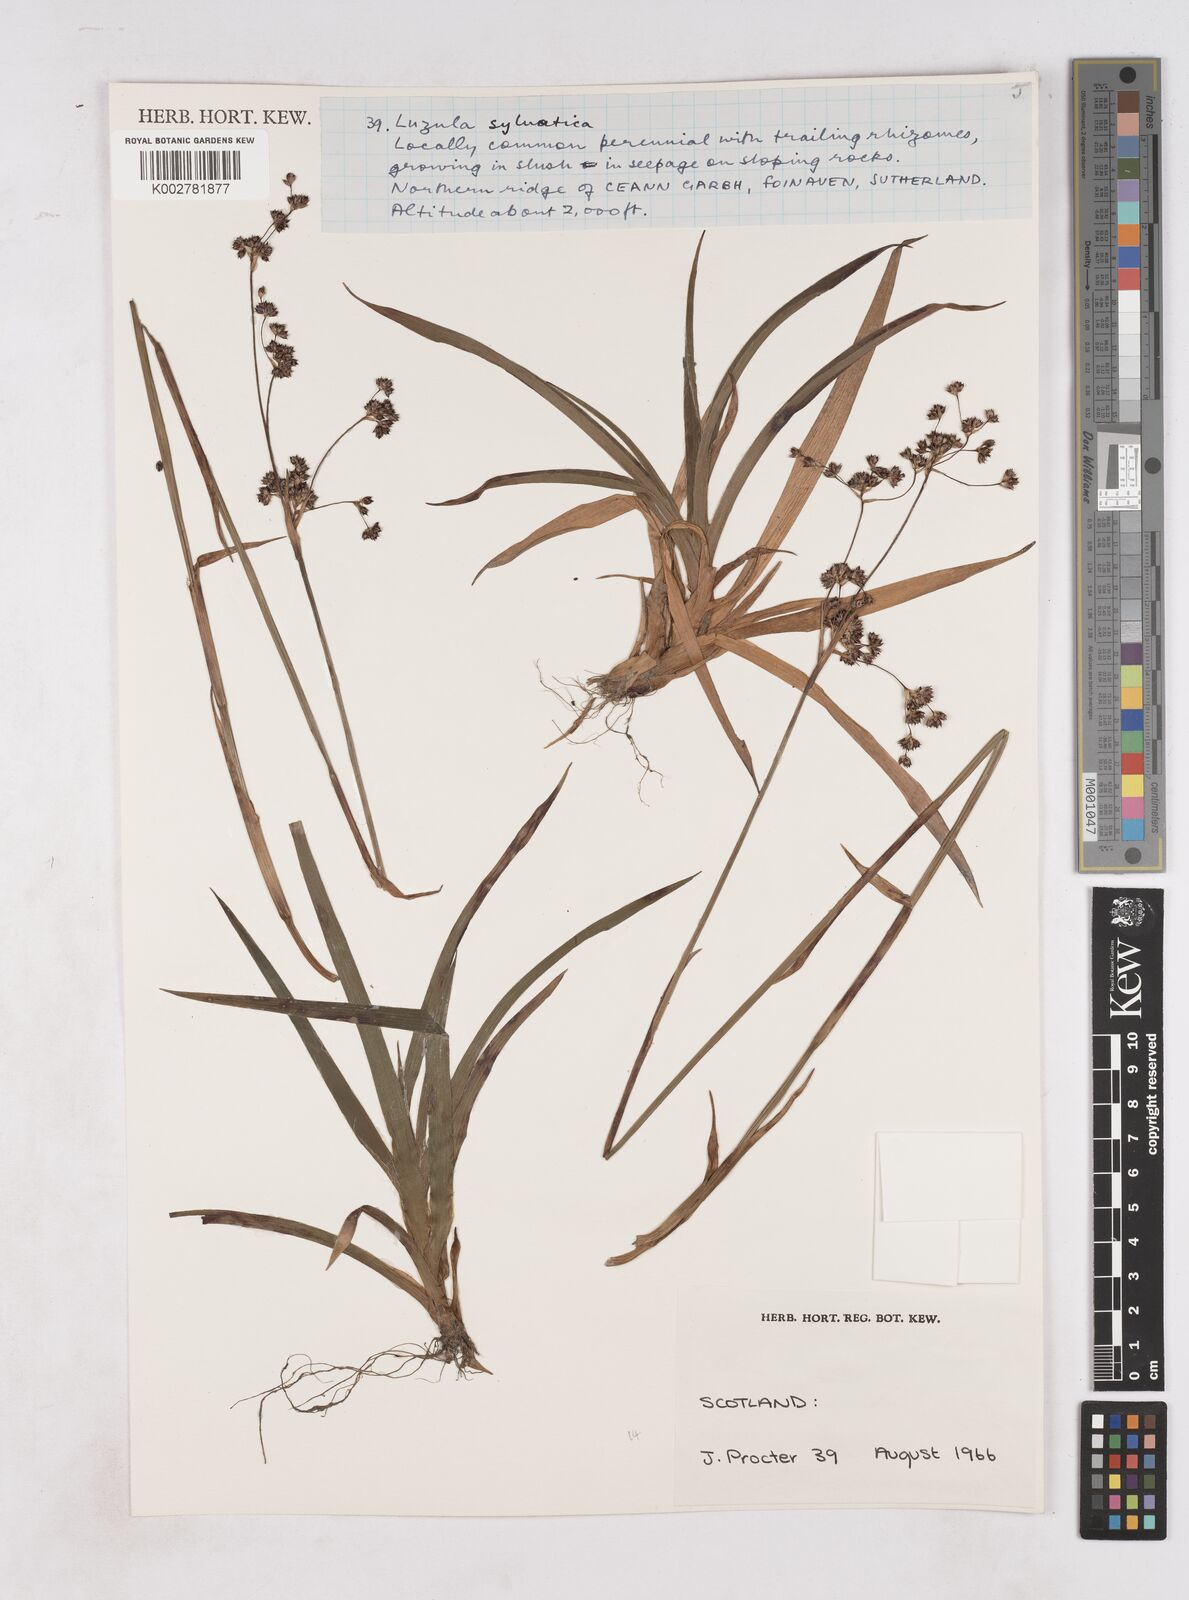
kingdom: Plantae
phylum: Tracheophyta
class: Liliopsida
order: Poales
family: Juncaceae
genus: Luzula
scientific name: Luzula sylvatica
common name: Great wood-rush
